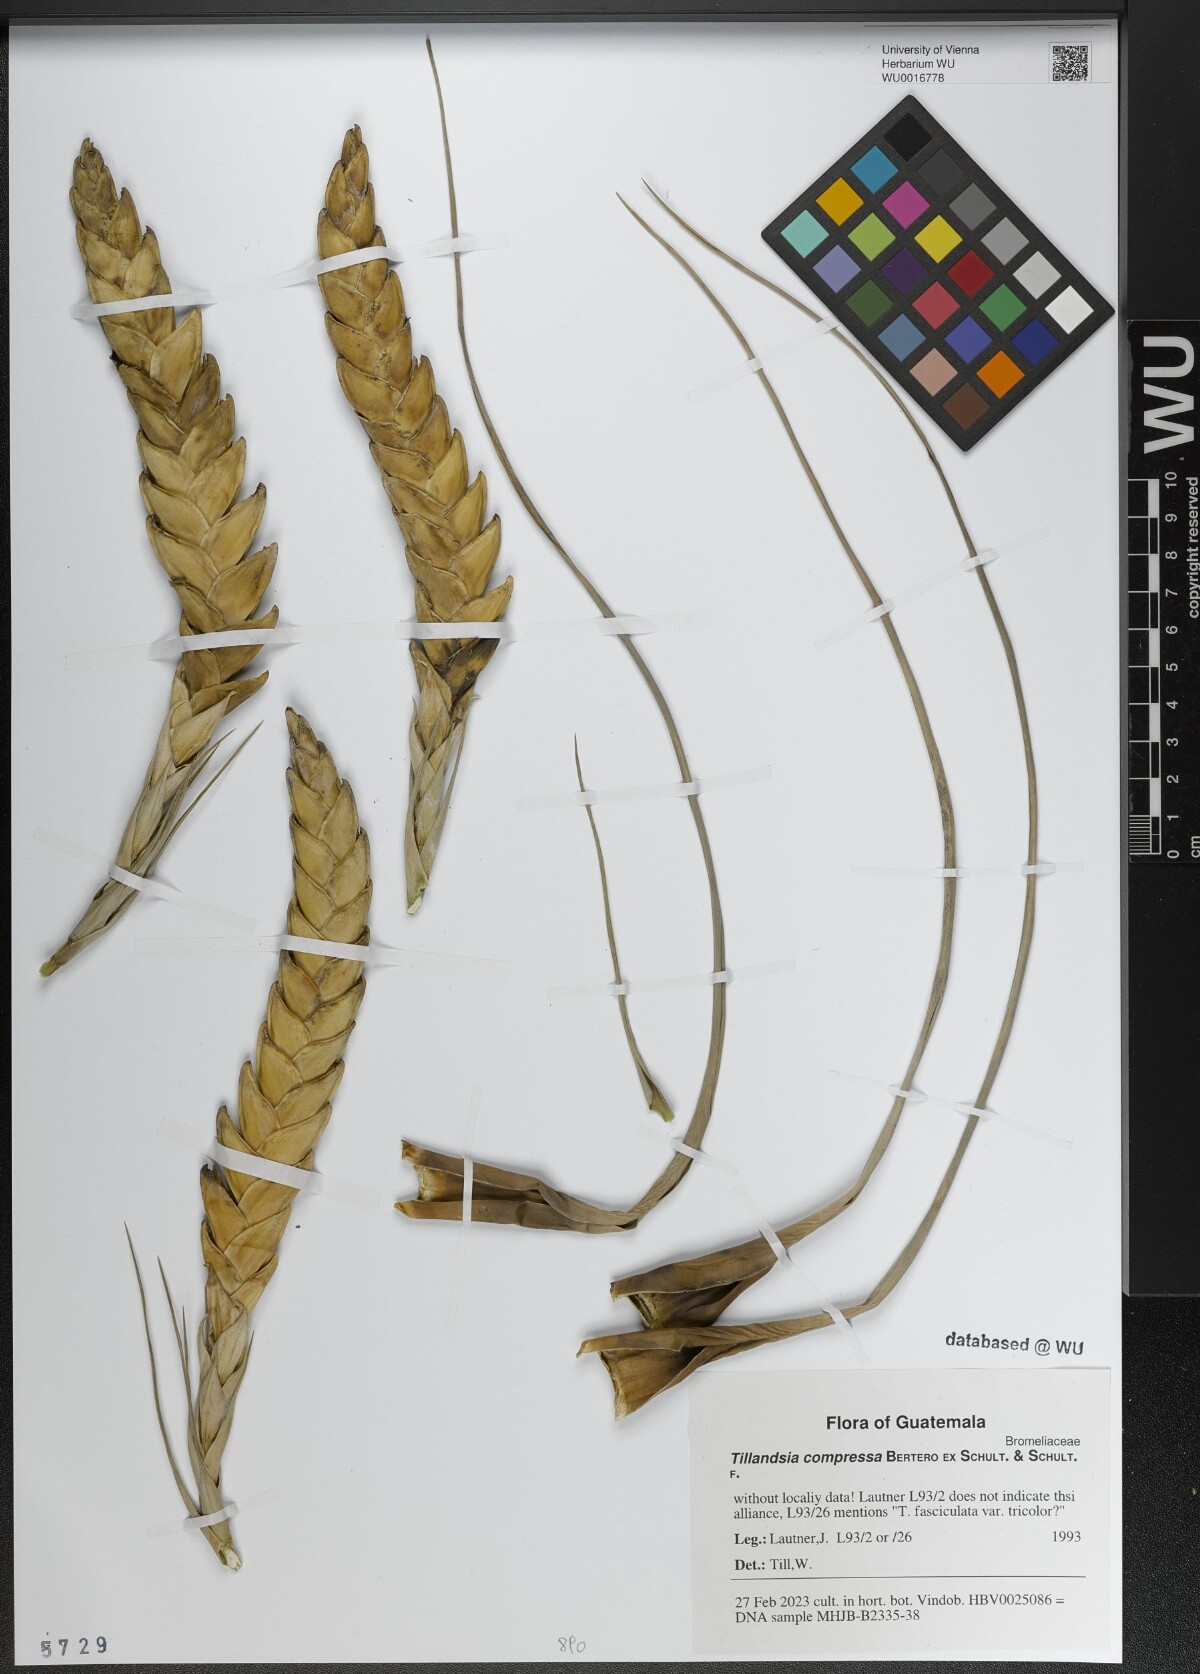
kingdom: Plantae
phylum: Tracheophyta
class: Liliopsida
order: Poales
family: Bromeliaceae
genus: Tillandsia
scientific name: Tillandsia compressa
